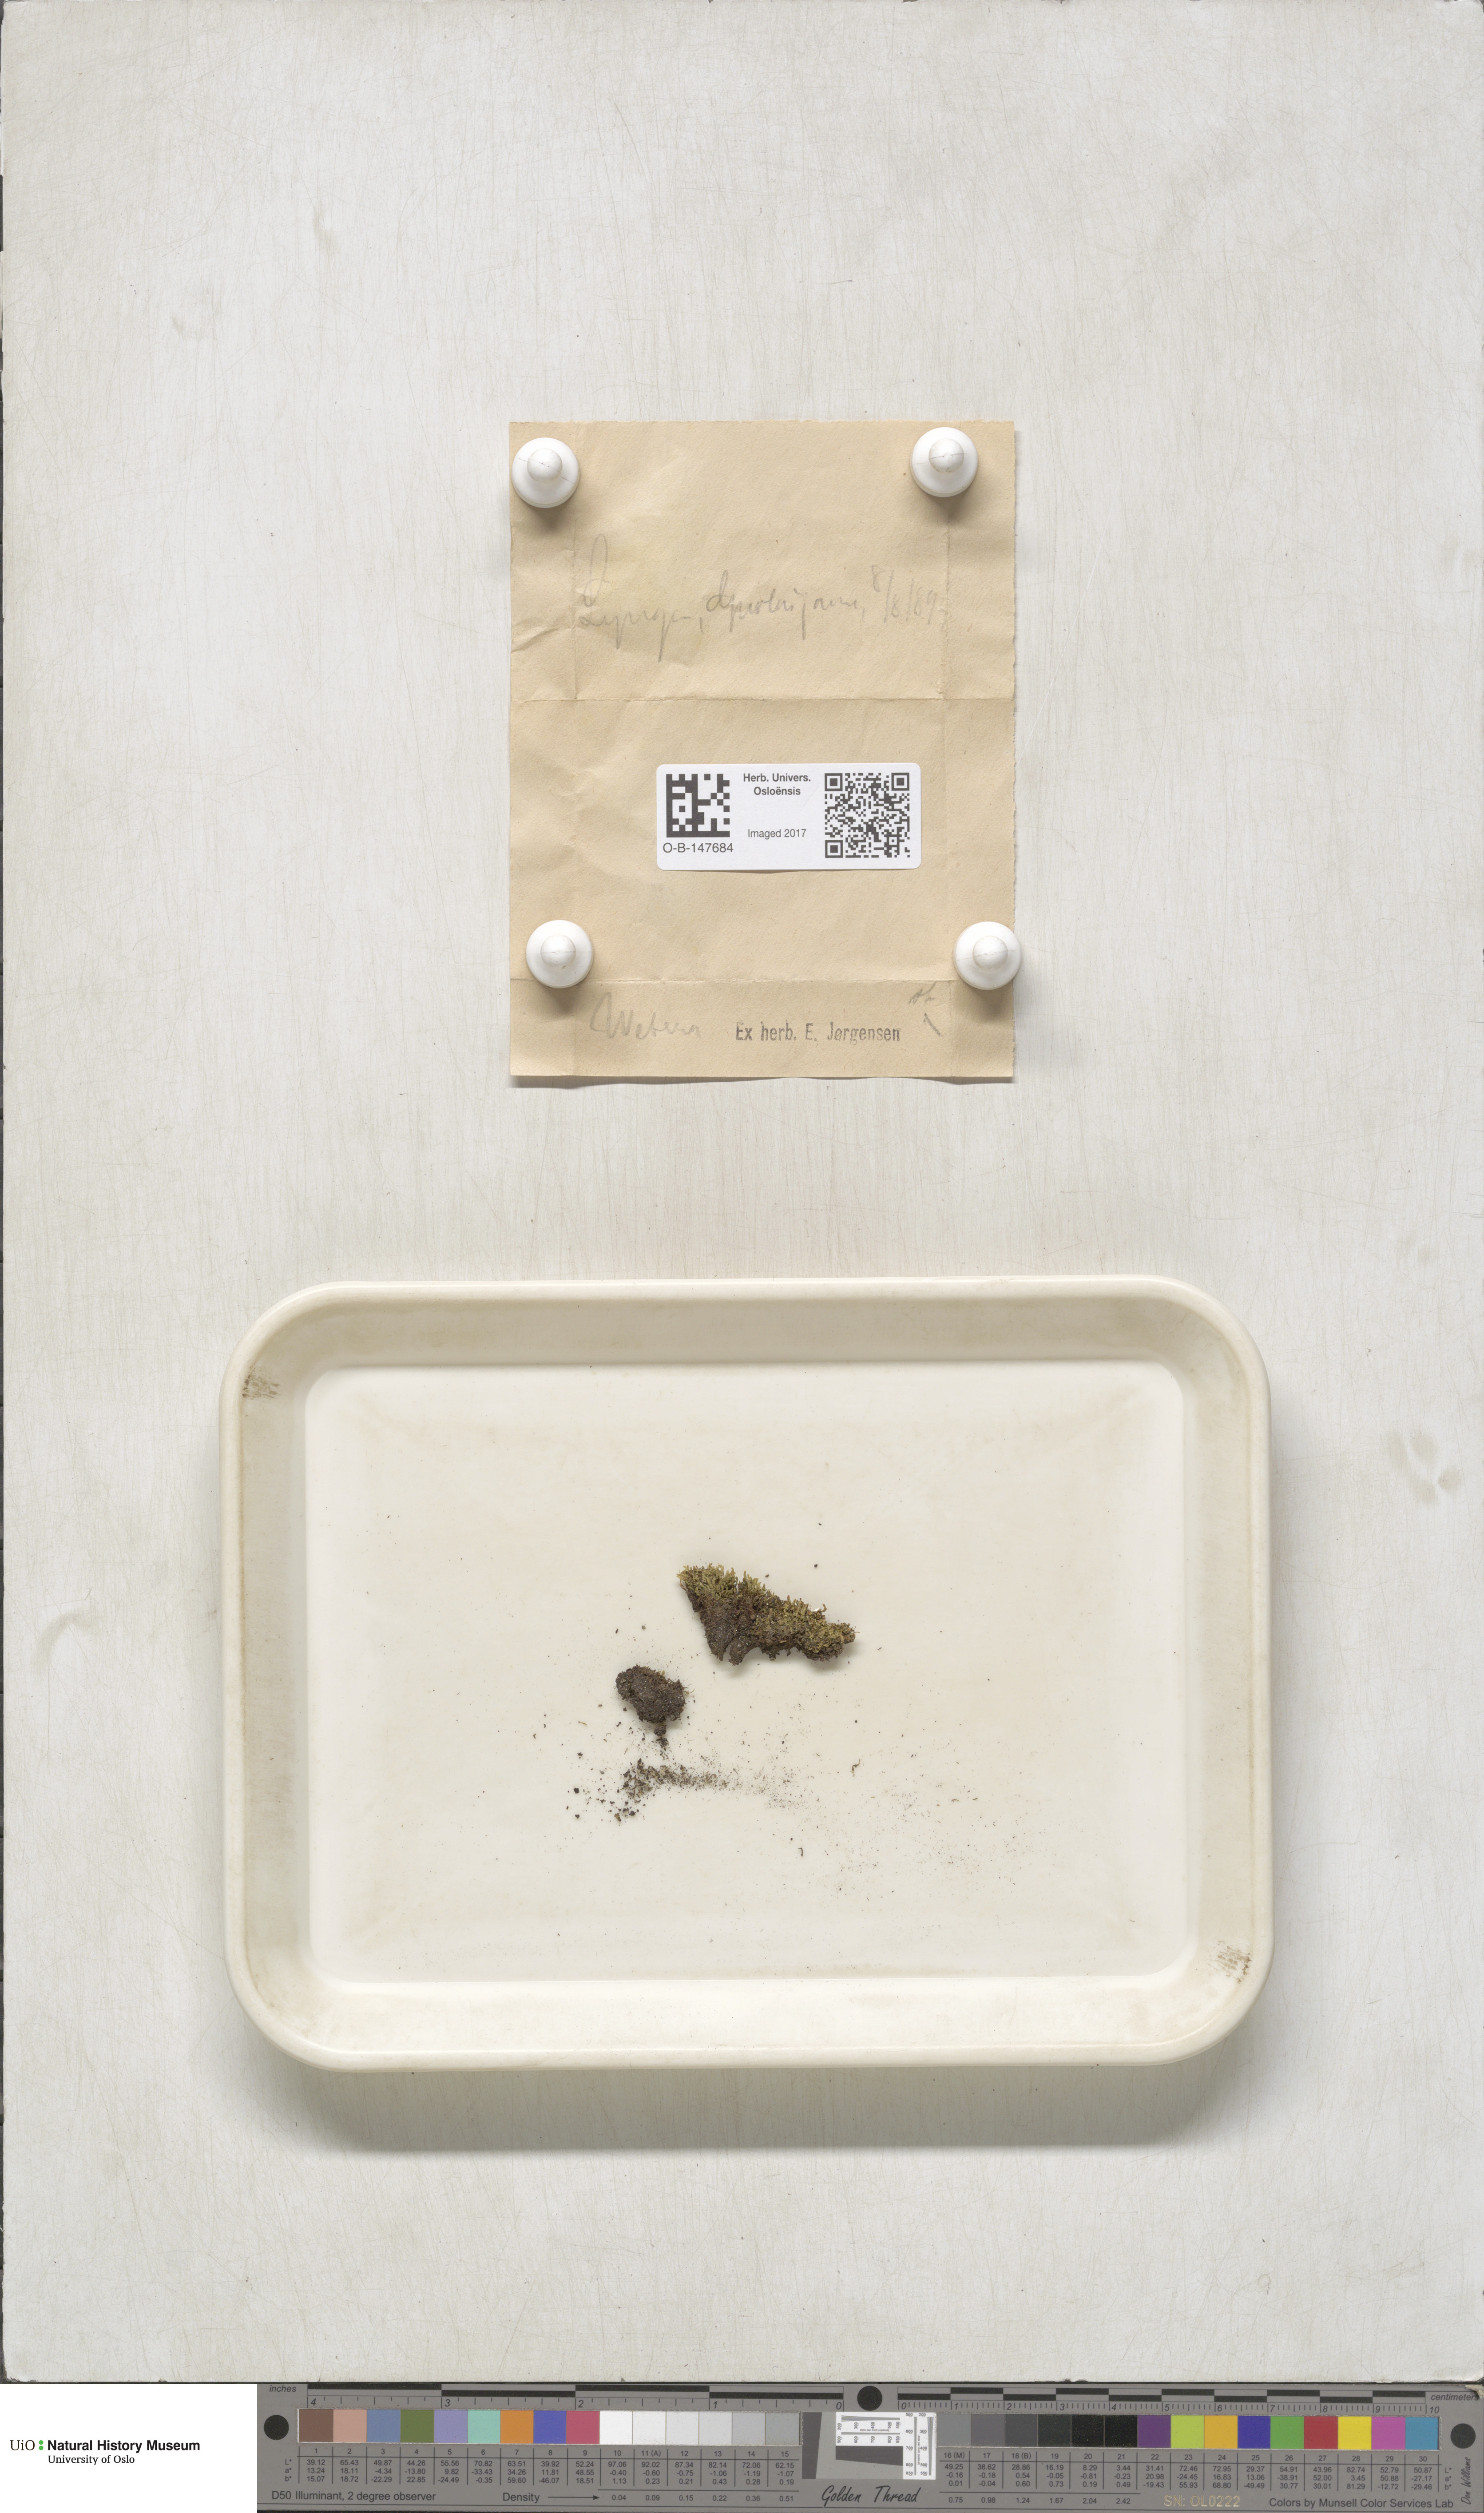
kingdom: Plantae
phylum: Bryophyta
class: Bryopsida
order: Bryales
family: Mniaceae
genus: Pohlia
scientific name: Pohlia
